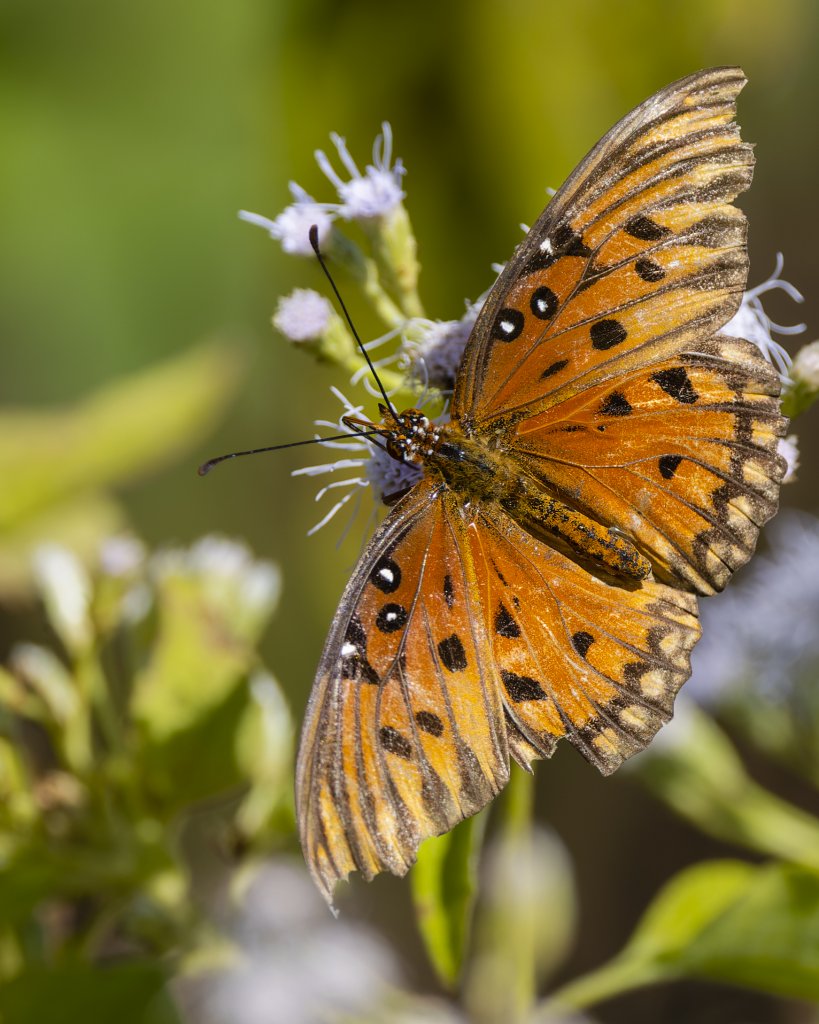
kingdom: Animalia
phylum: Arthropoda
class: Insecta
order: Lepidoptera
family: Nymphalidae
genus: Dione
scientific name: Dione vanillae
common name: Gulf Fritillary
